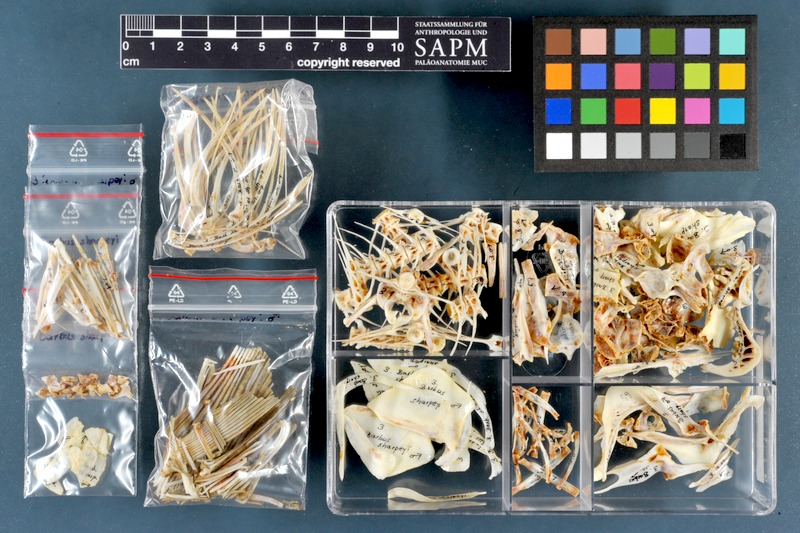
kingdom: Animalia
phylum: Chordata
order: Cypriniformes
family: Cyprinidae
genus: Mesopotamichthys
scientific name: Mesopotamichthys sharpeyi
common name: Binni
